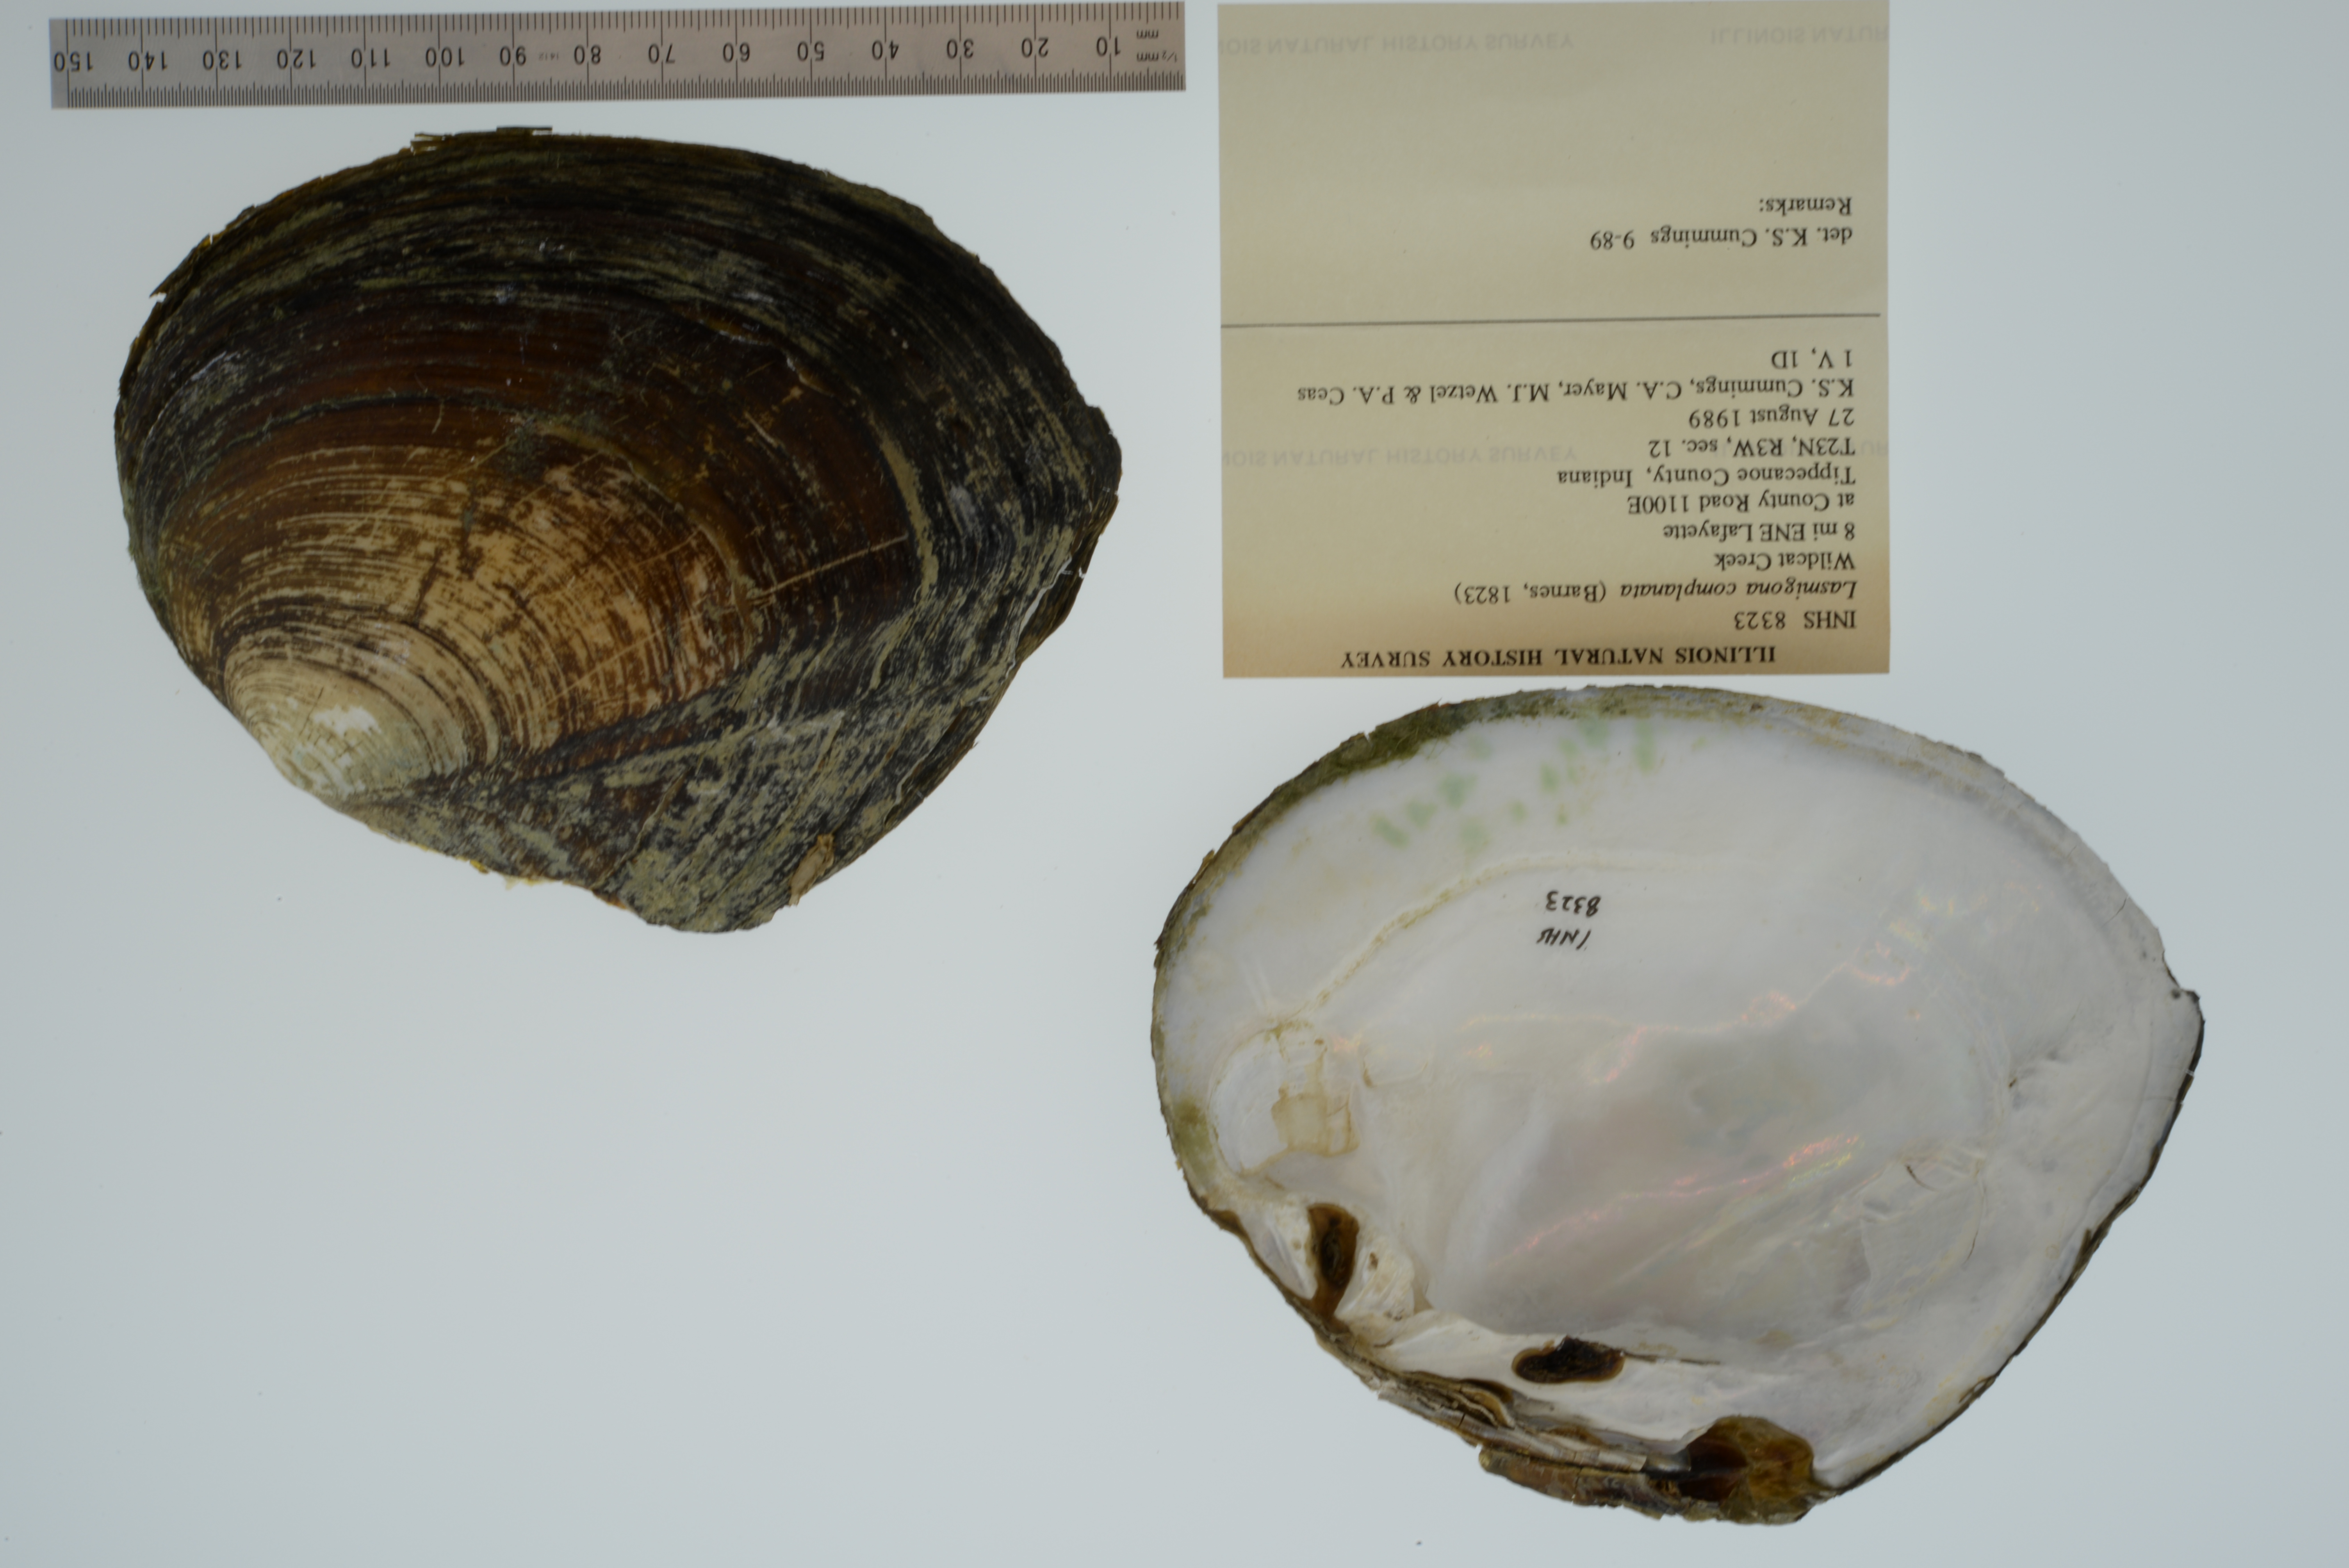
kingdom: Animalia
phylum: Mollusca
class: Bivalvia
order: Unionida
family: Unionidae
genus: Lasmigona
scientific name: Lasmigona complanata
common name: White heelsplitter
